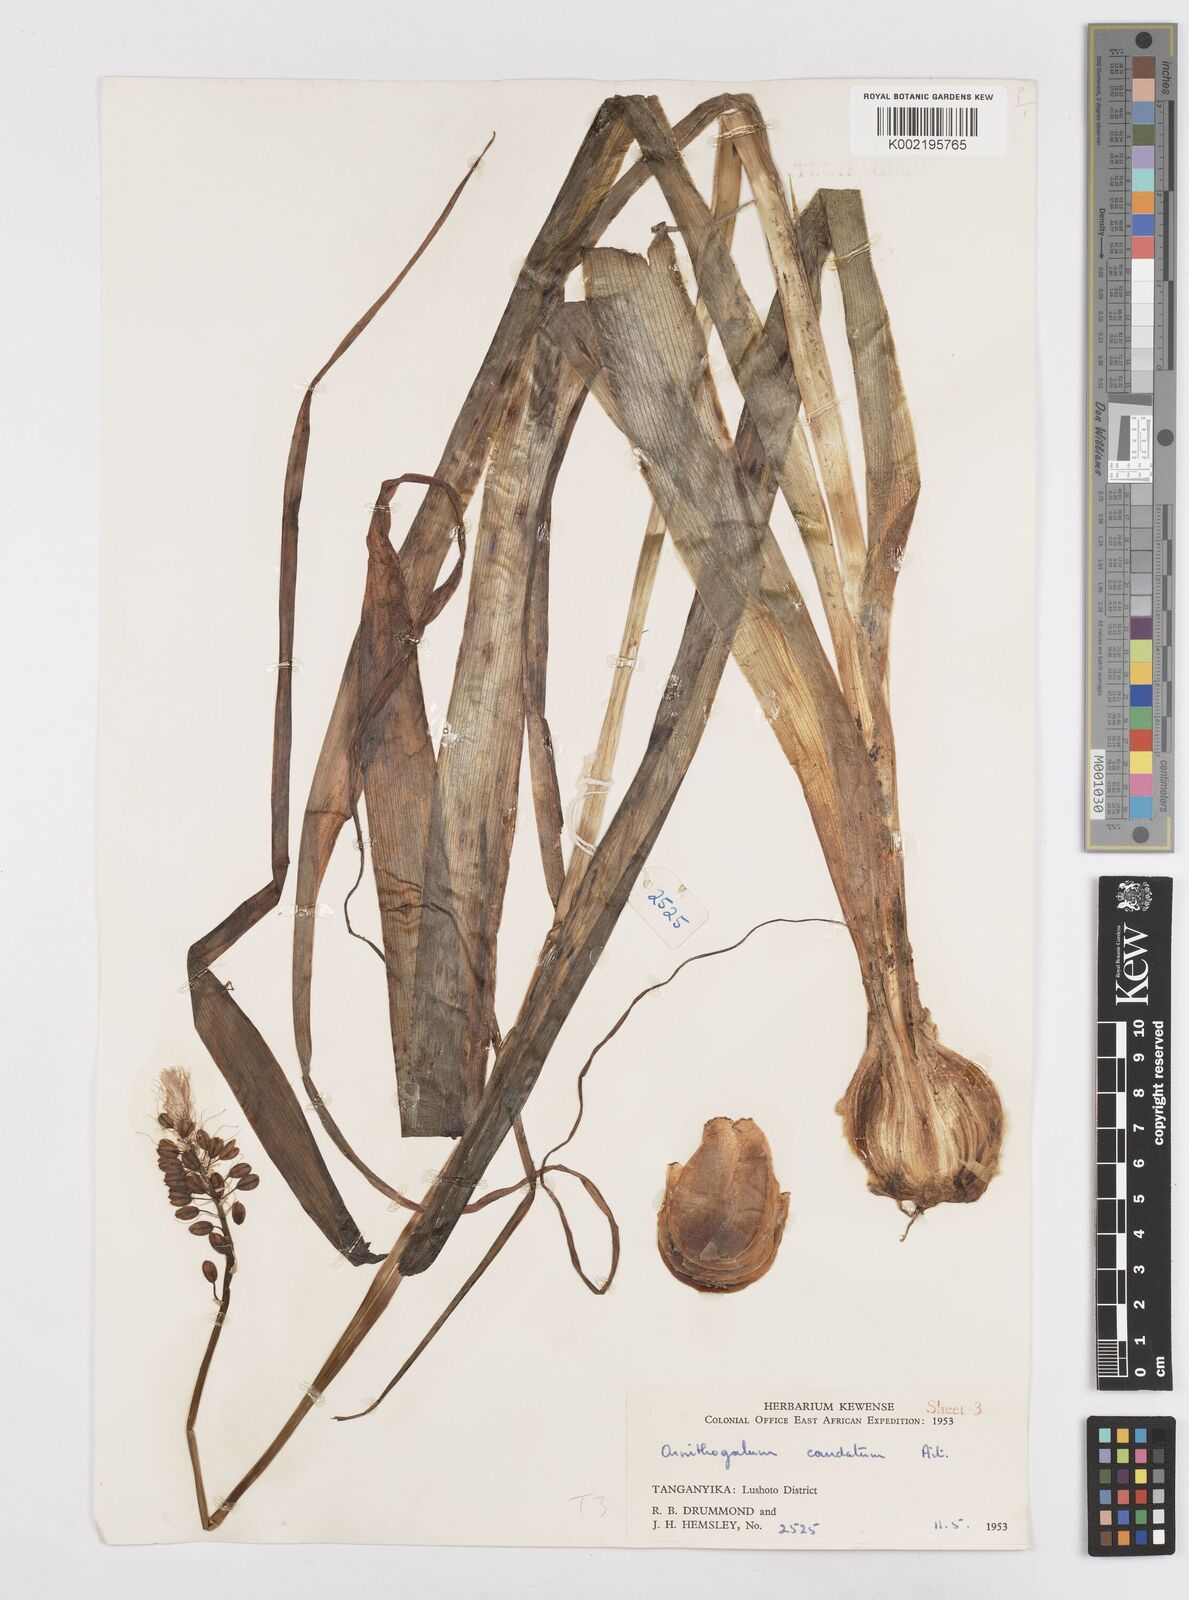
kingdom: Plantae
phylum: Tracheophyta
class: Liliopsida
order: Asparagales
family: Asparagaceae
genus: Albuca
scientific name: Albuca virens
